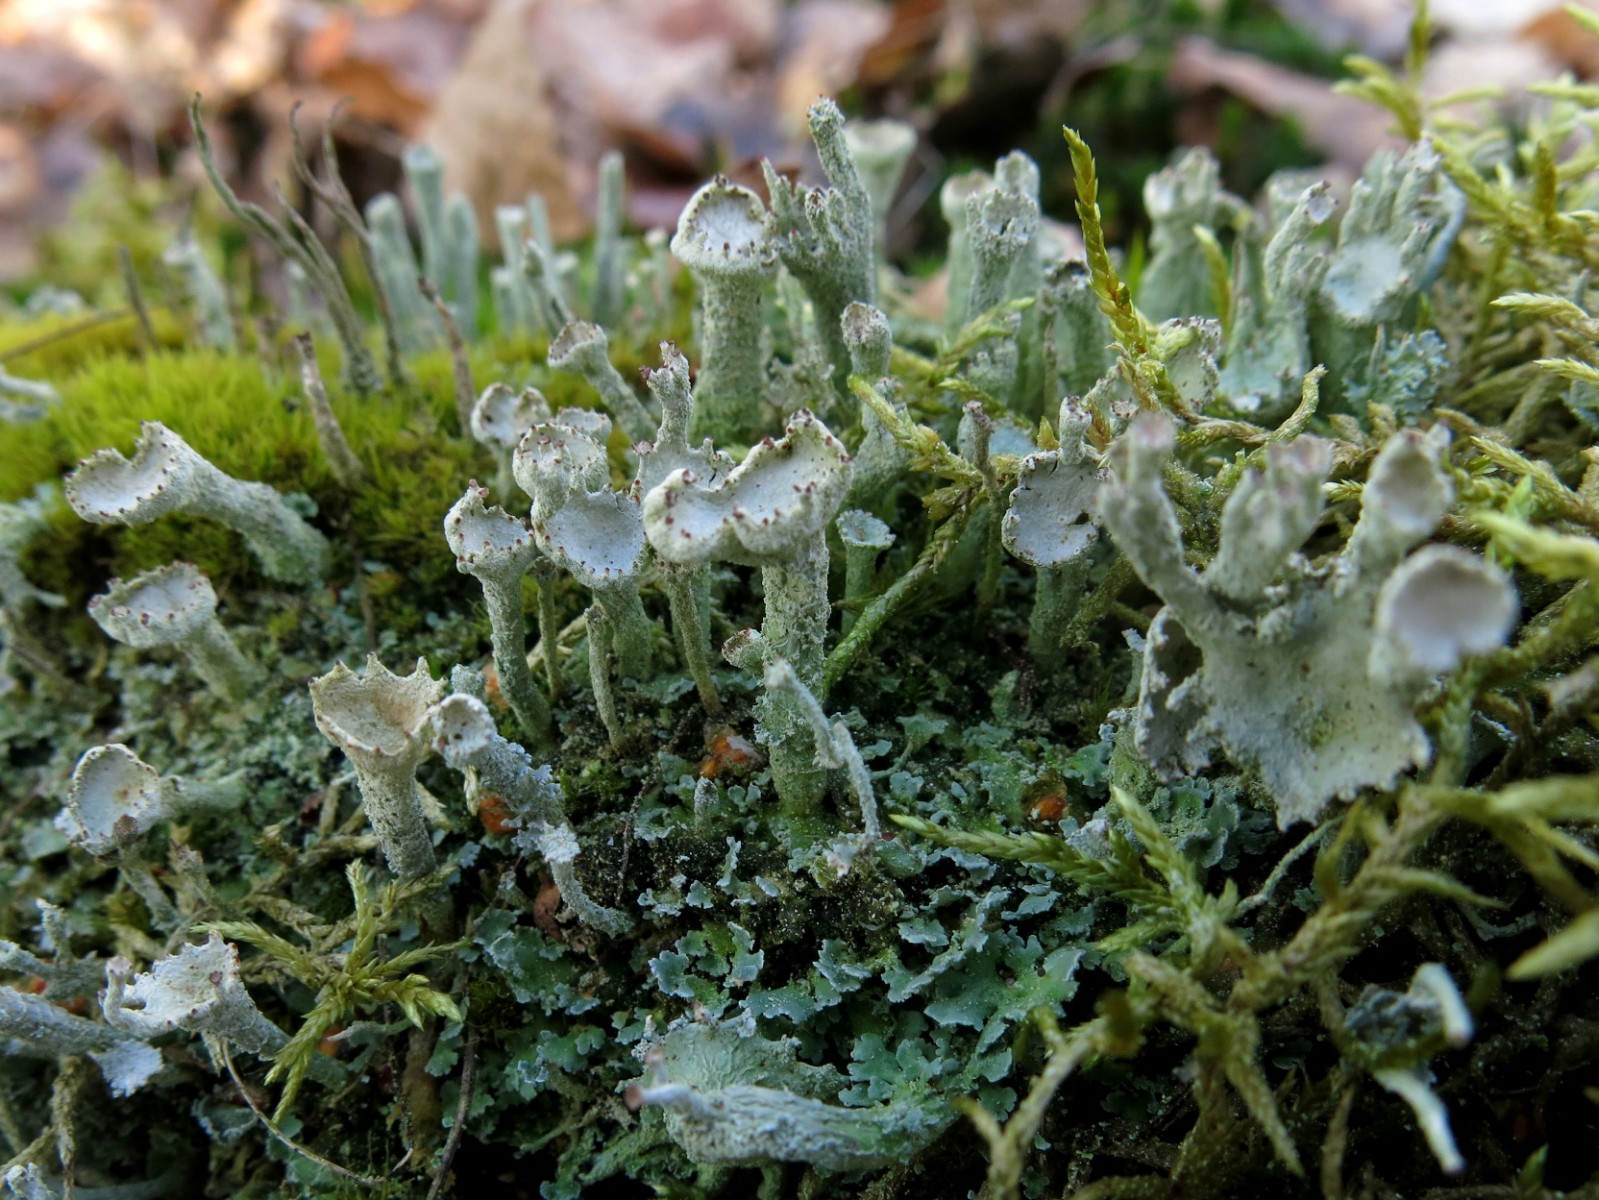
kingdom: Fungi
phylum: Ascomycota
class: Lecanoromycetes
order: Lecanorales
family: Cladoniaceae
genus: Cladonia
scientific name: Cladonia digitata
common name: finger-bægerlav
